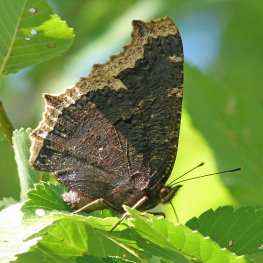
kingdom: Animalia
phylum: Arthropoda
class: Insecta
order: Lepidoptera
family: Nymphalidae
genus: Nymphalis
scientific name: Nymphalis antiopa
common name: Mourning Cloak
